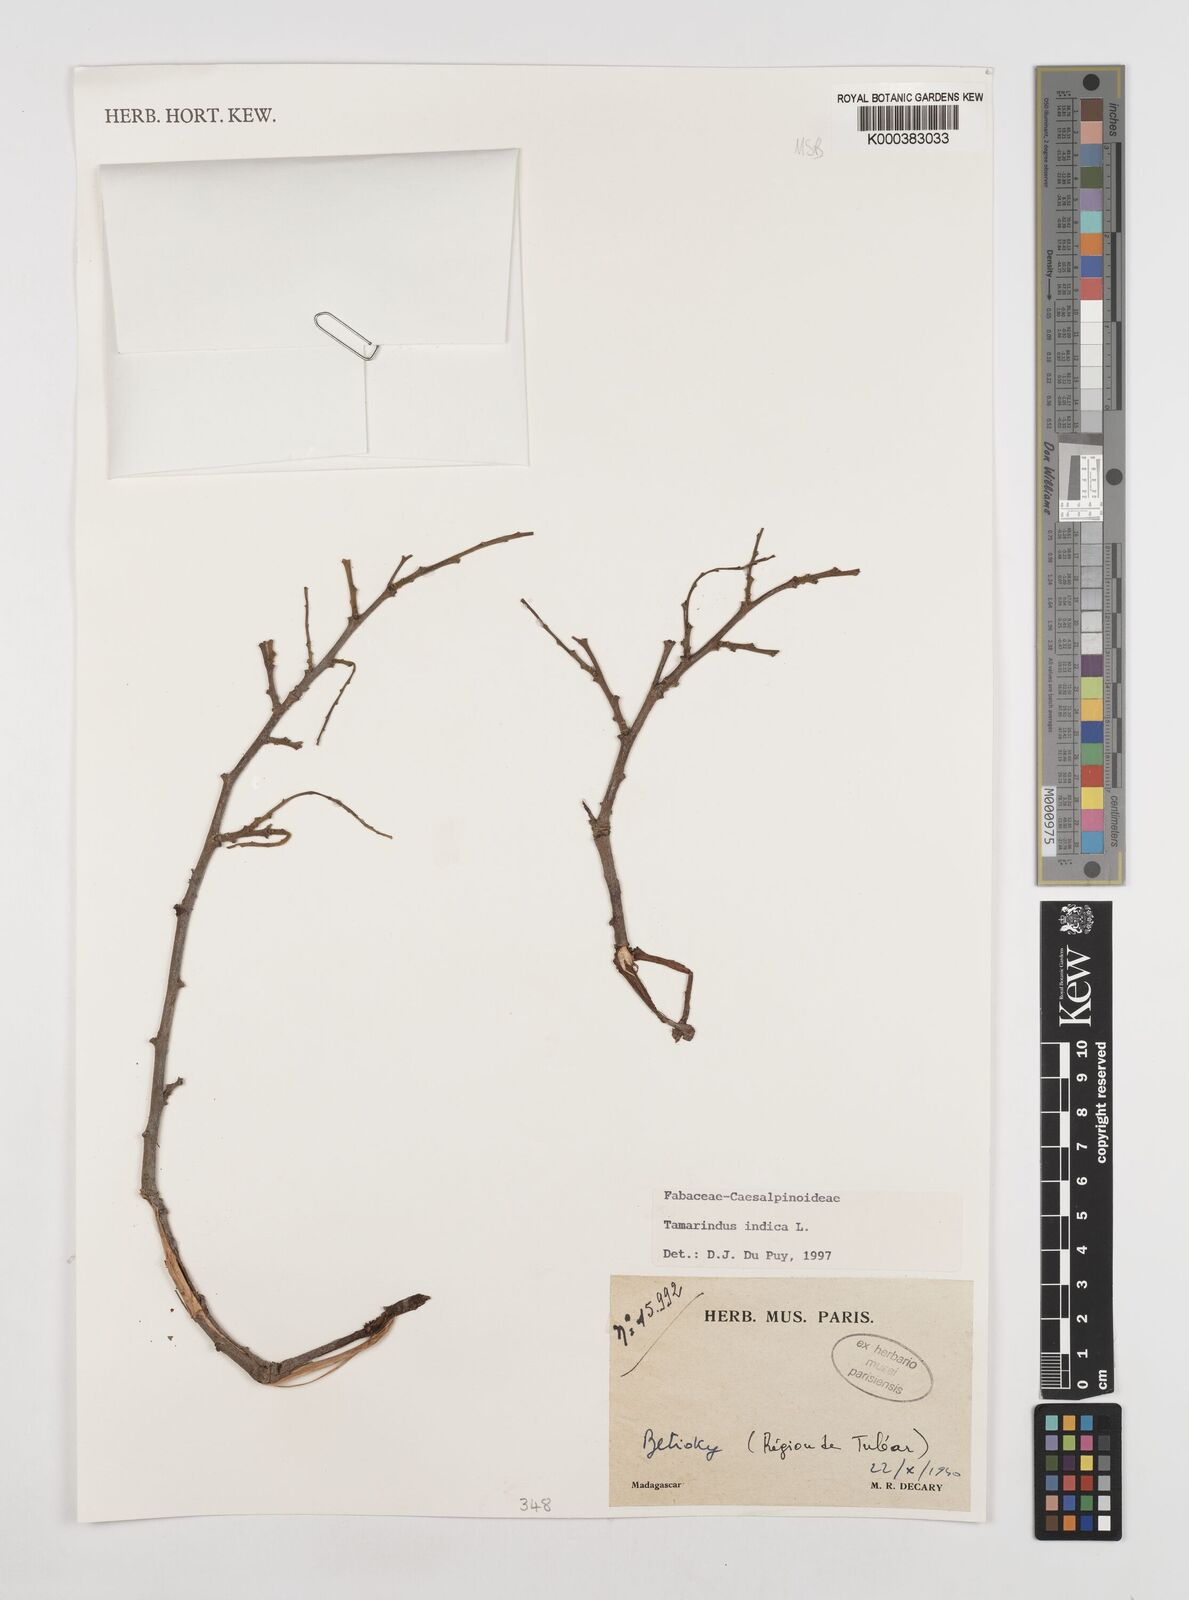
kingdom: Plantae
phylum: Tracheophyta
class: Magnoliopsida
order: Fabales
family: Fabaceae
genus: Tamarindus
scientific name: Tamarindus indica
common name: Tamarind
